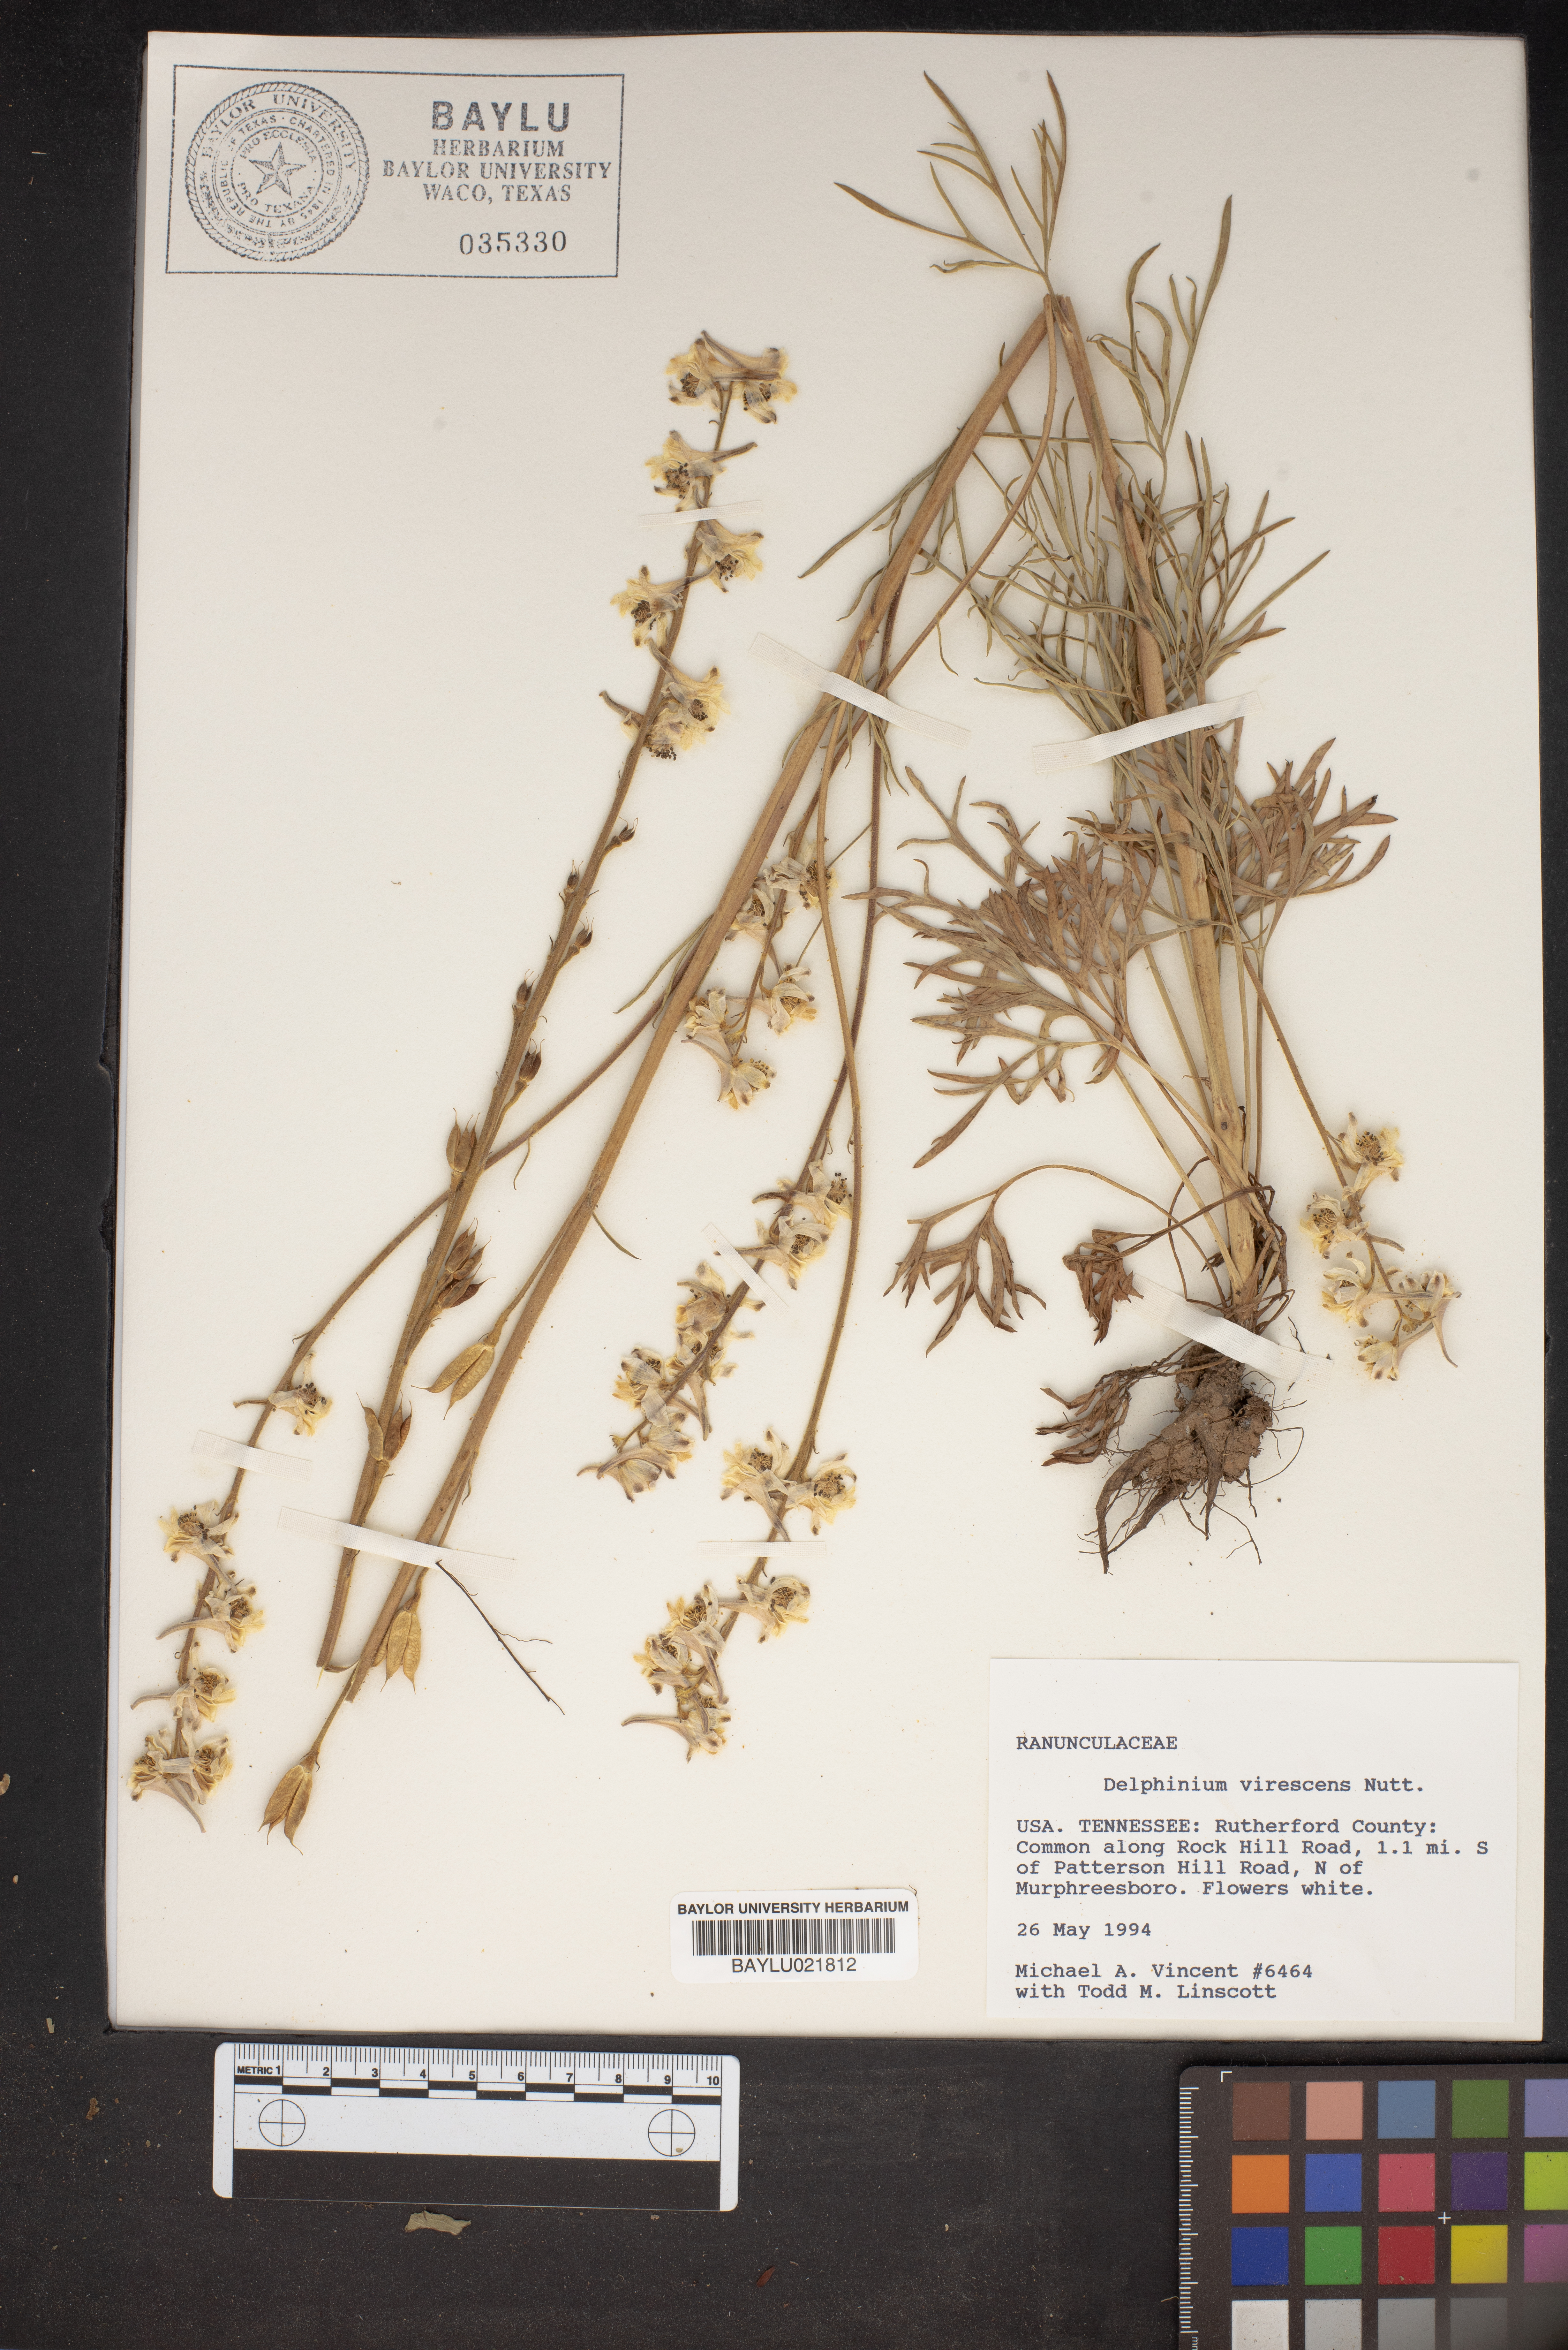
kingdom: Plantae
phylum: Tracheophyta
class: Magnoliopsida
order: Ranunculales
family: Ranunculaceae
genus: Delphinium
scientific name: Delphinium carolinianum
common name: Carolina larkspur
